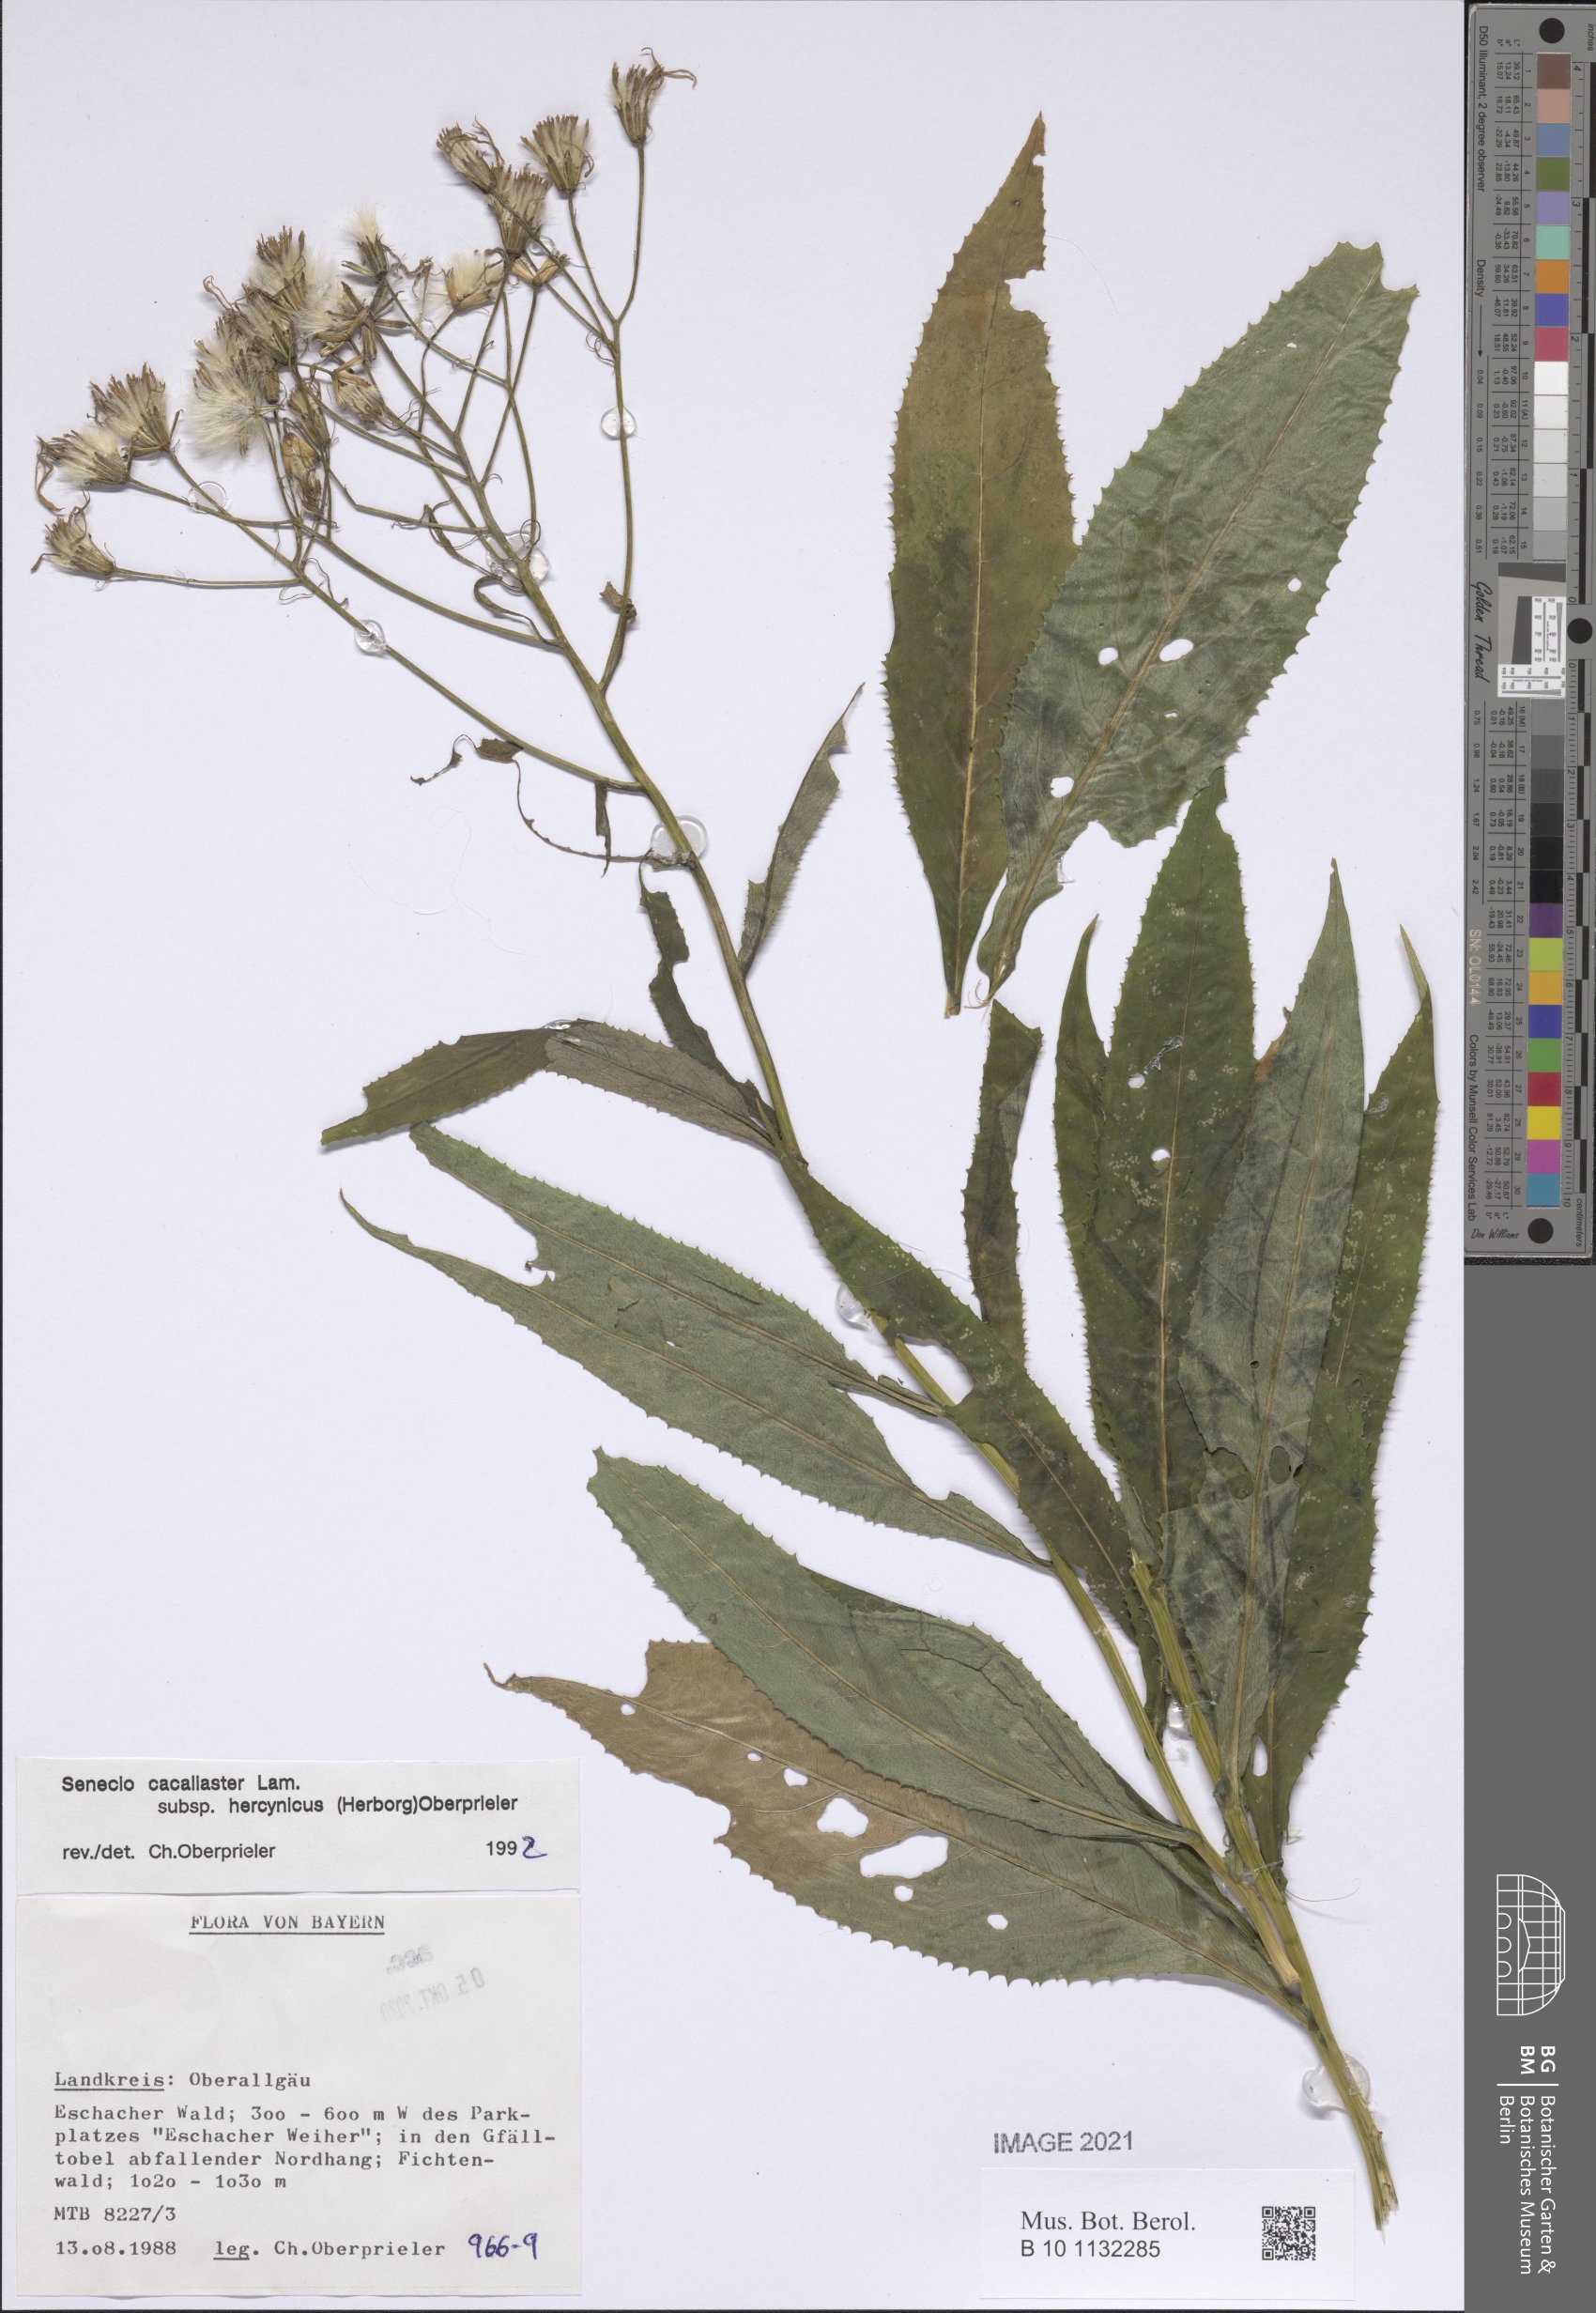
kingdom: Plantae
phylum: Tracheophyta
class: Magnoliopsida
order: Asterales
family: Asteraceae
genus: Senecio
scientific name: Senecio hercynicus
